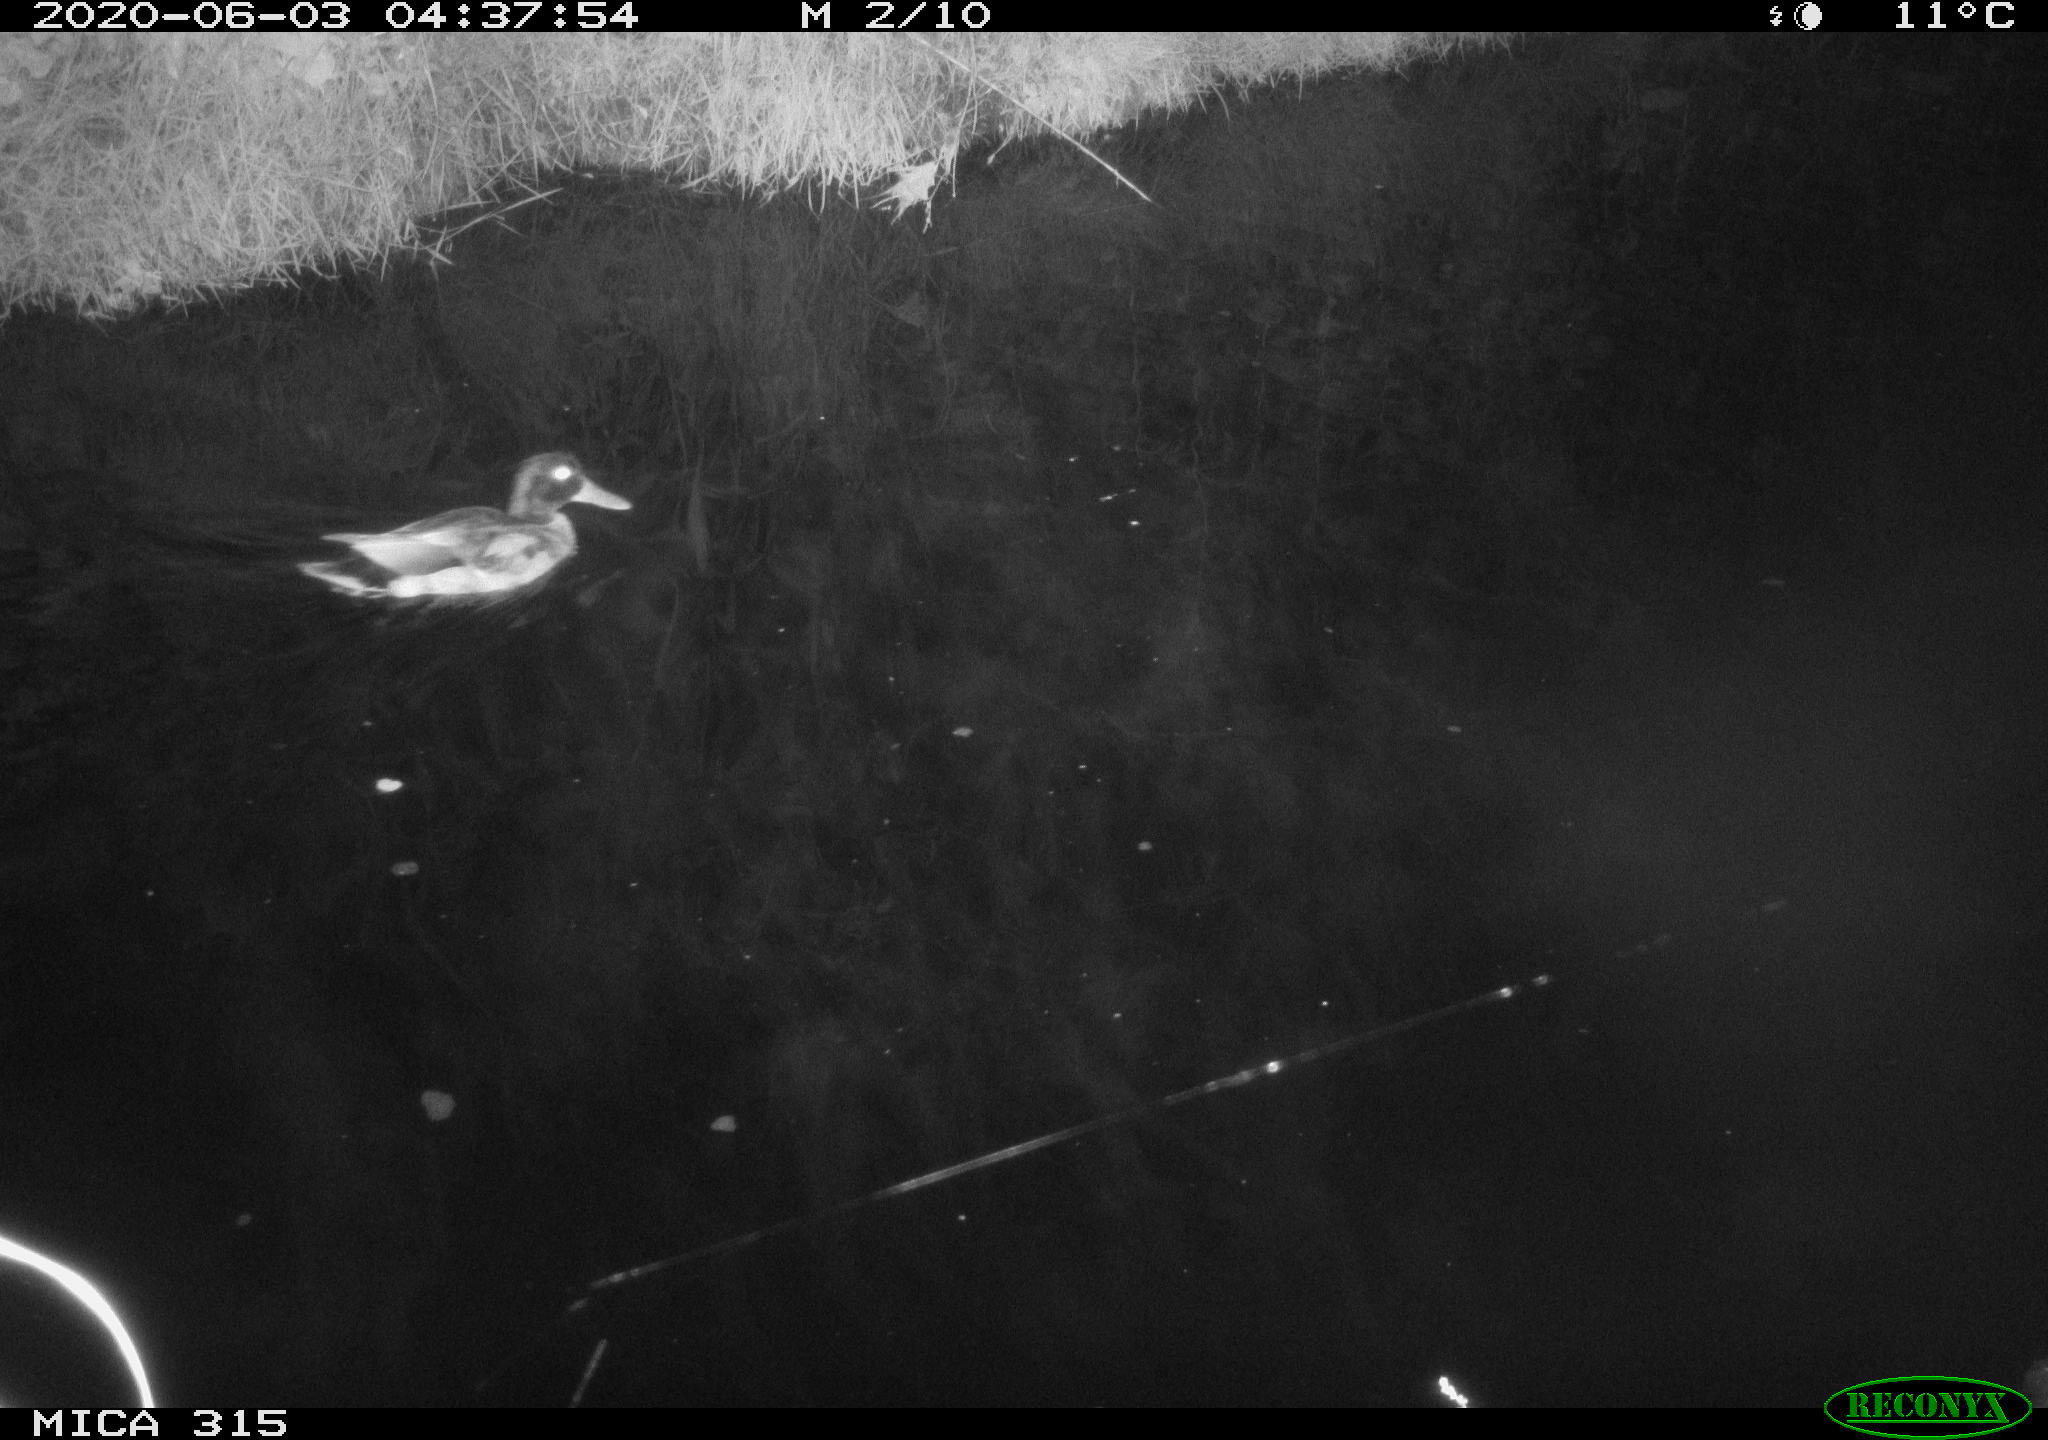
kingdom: Animalia
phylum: Chordata
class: Aves
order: Anseriformes
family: Anatidae
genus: Anas
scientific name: Anas platyrhynchos
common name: Mallard
